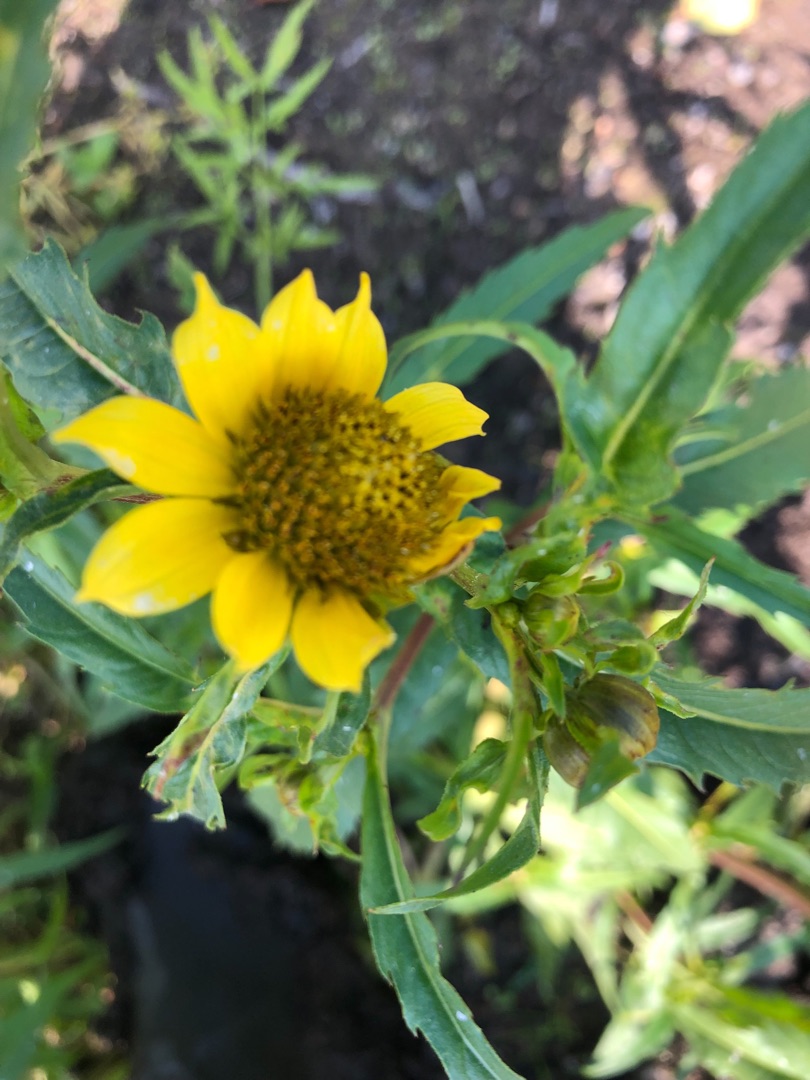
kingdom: Plantae
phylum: Tracheophyta
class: Magnoliopsida
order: Asterales
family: Asteraceae
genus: Bidens
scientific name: Bidens cernua
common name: Nikkende brøndsel
